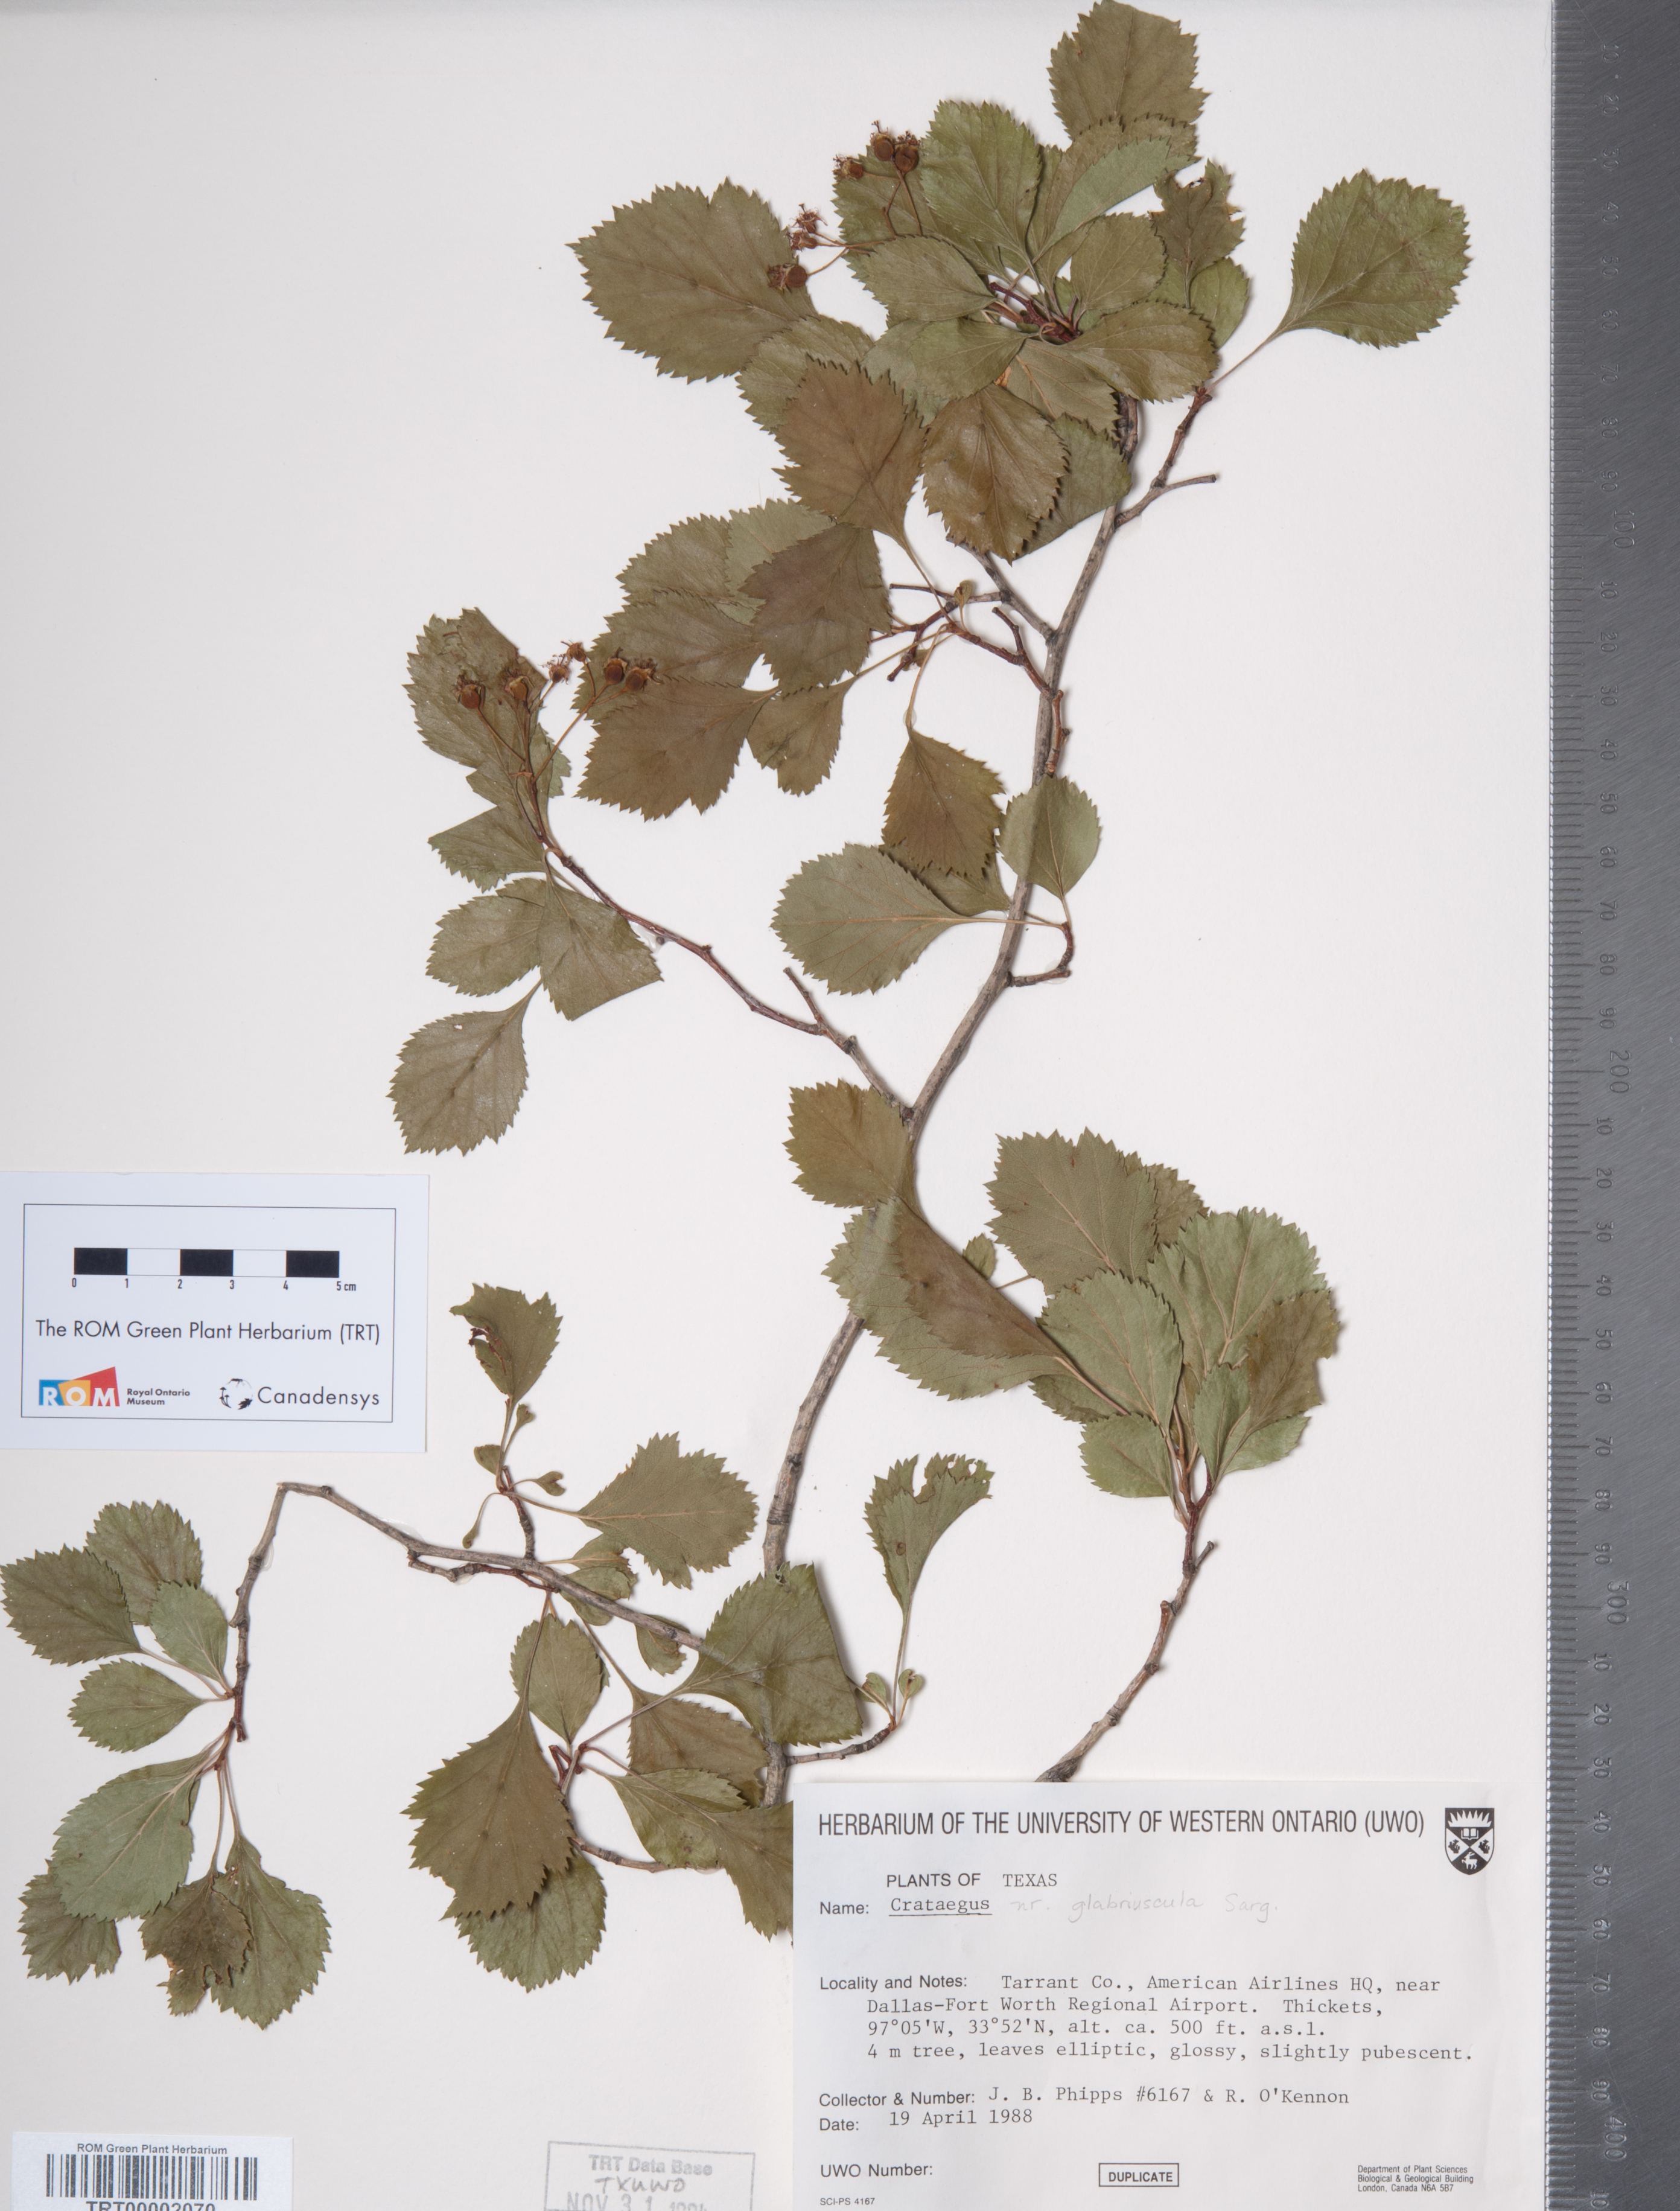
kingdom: Plantae
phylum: Tracheophyta
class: Magnoliopsida
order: Rosales
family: Rosaceae
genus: Crataegus
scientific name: Crataegus viridis
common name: Southernthorn
